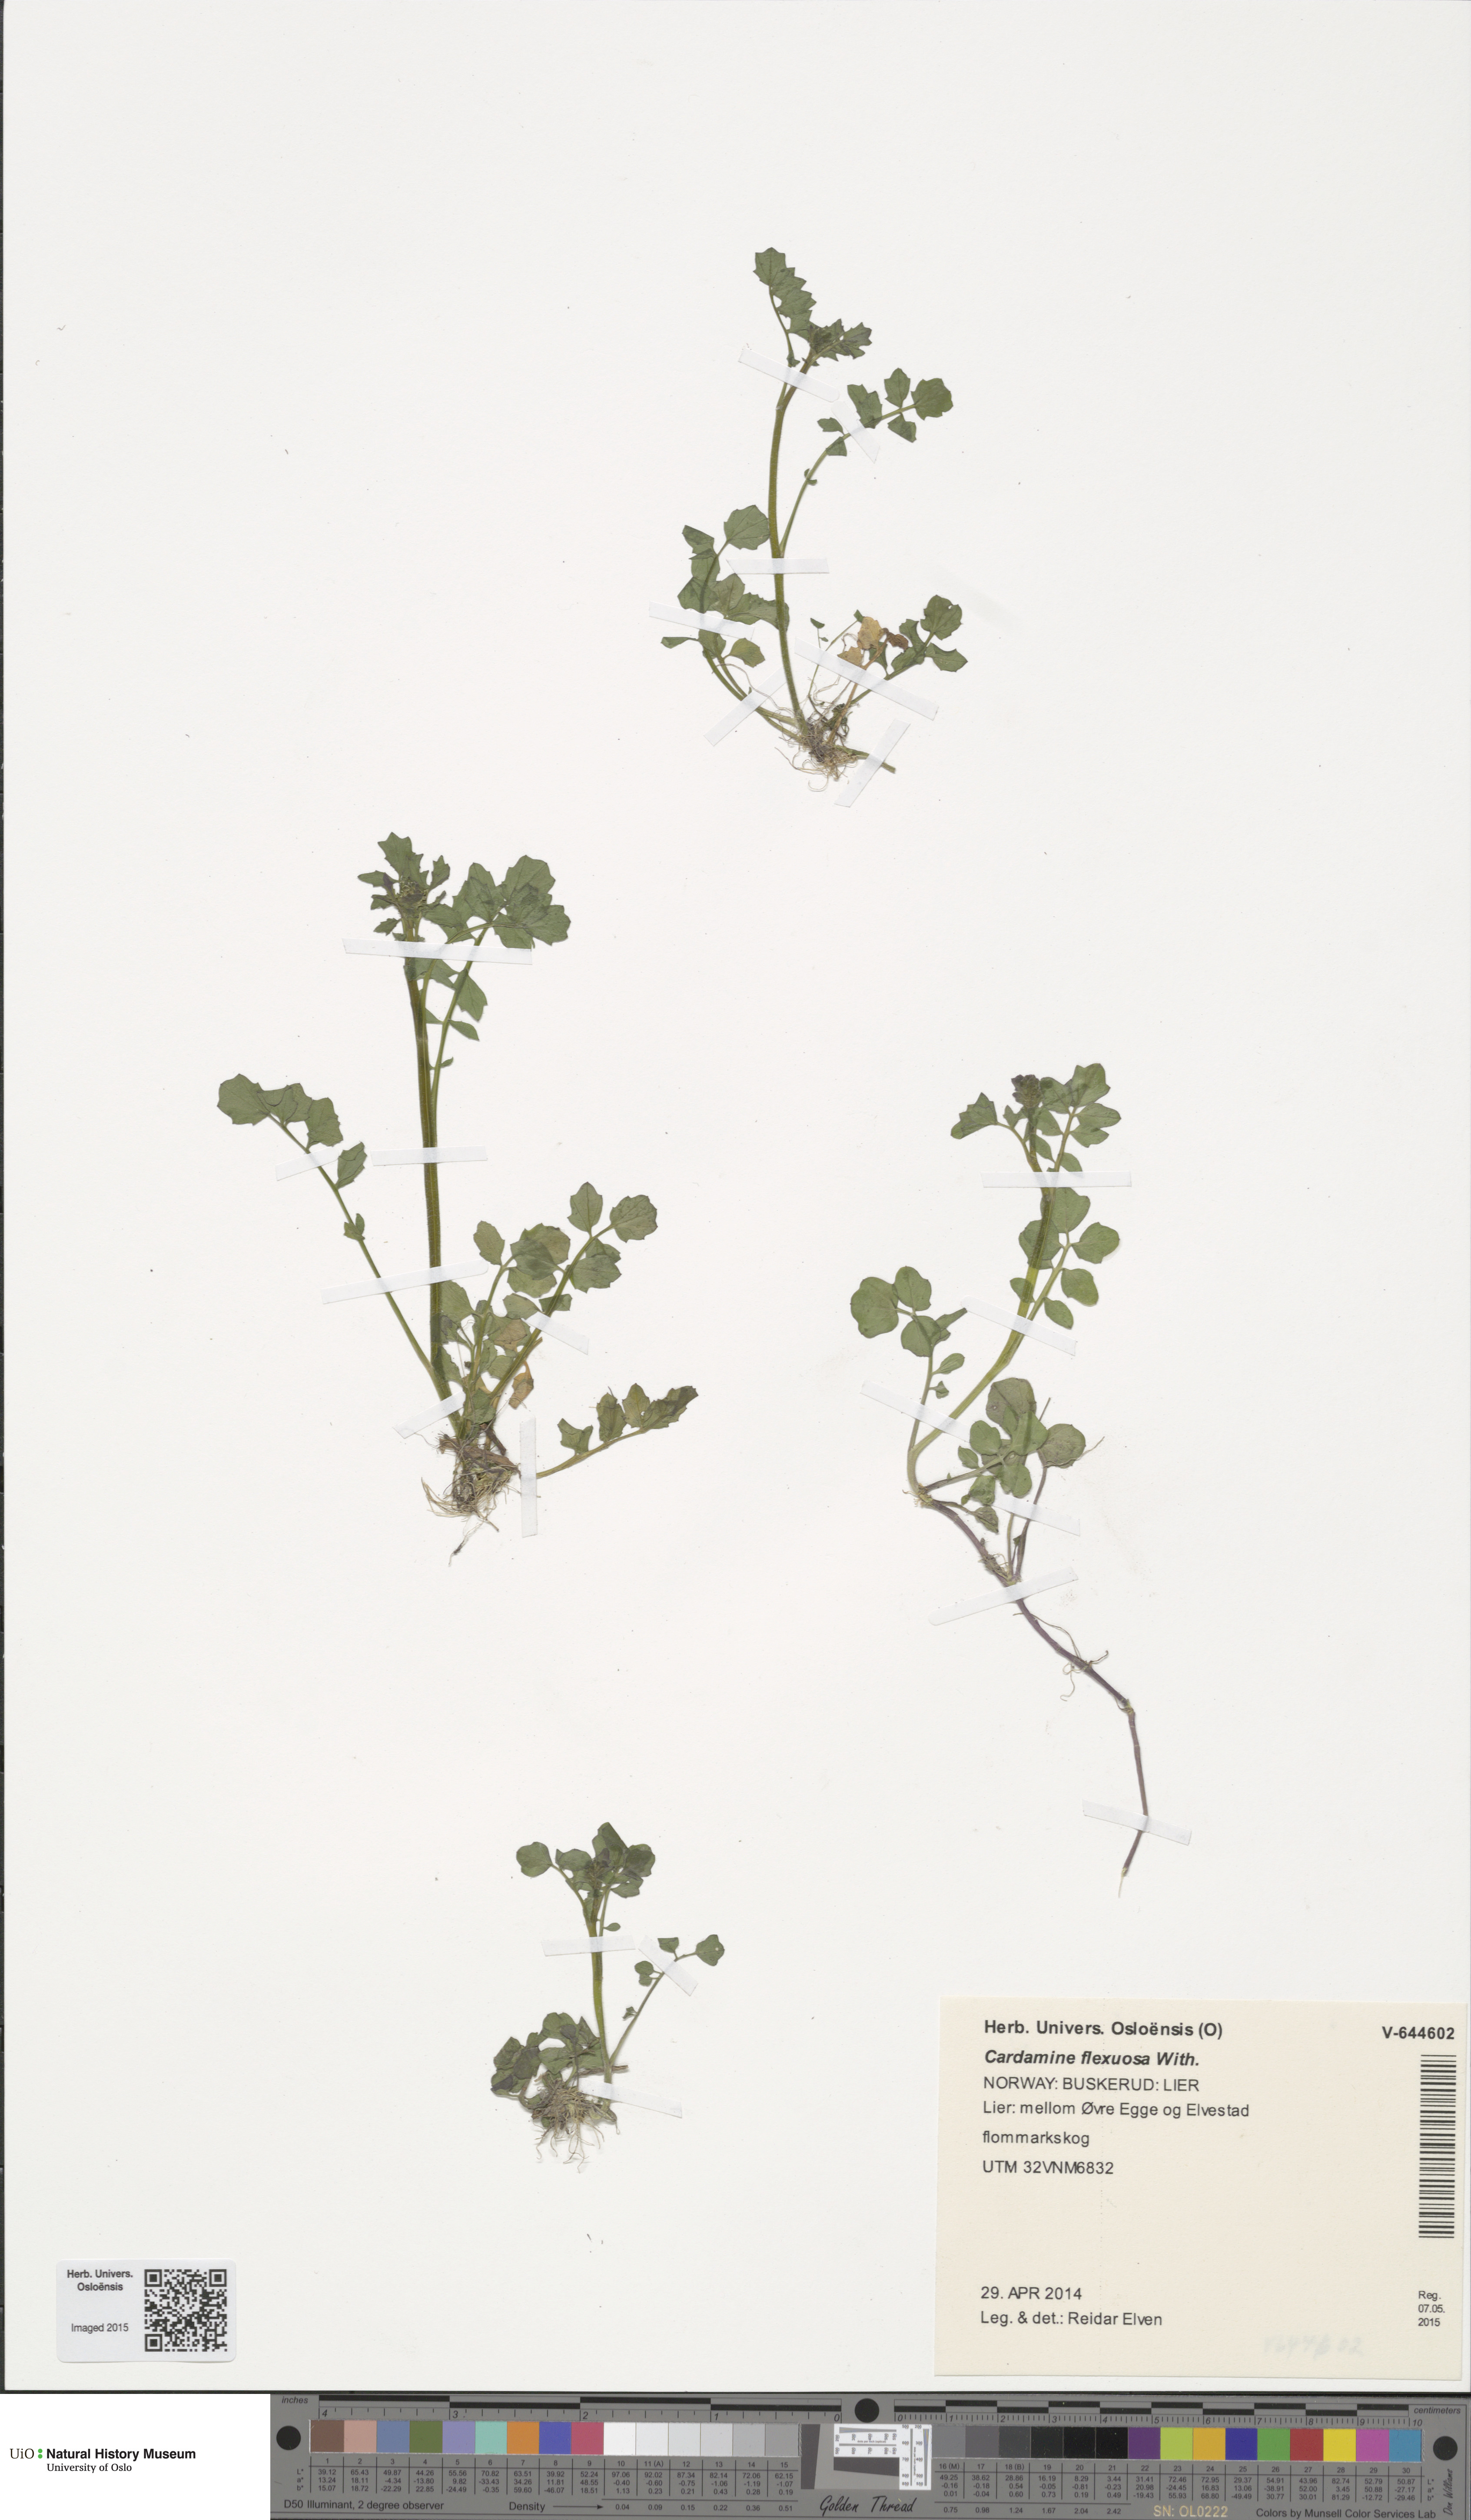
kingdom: Plantae
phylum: Tracheophyta
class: Magnoliopsida
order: Brassicales
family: Brassicaceae
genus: Cardamine
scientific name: Cardamine flexuosa
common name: Woodland bittercress
